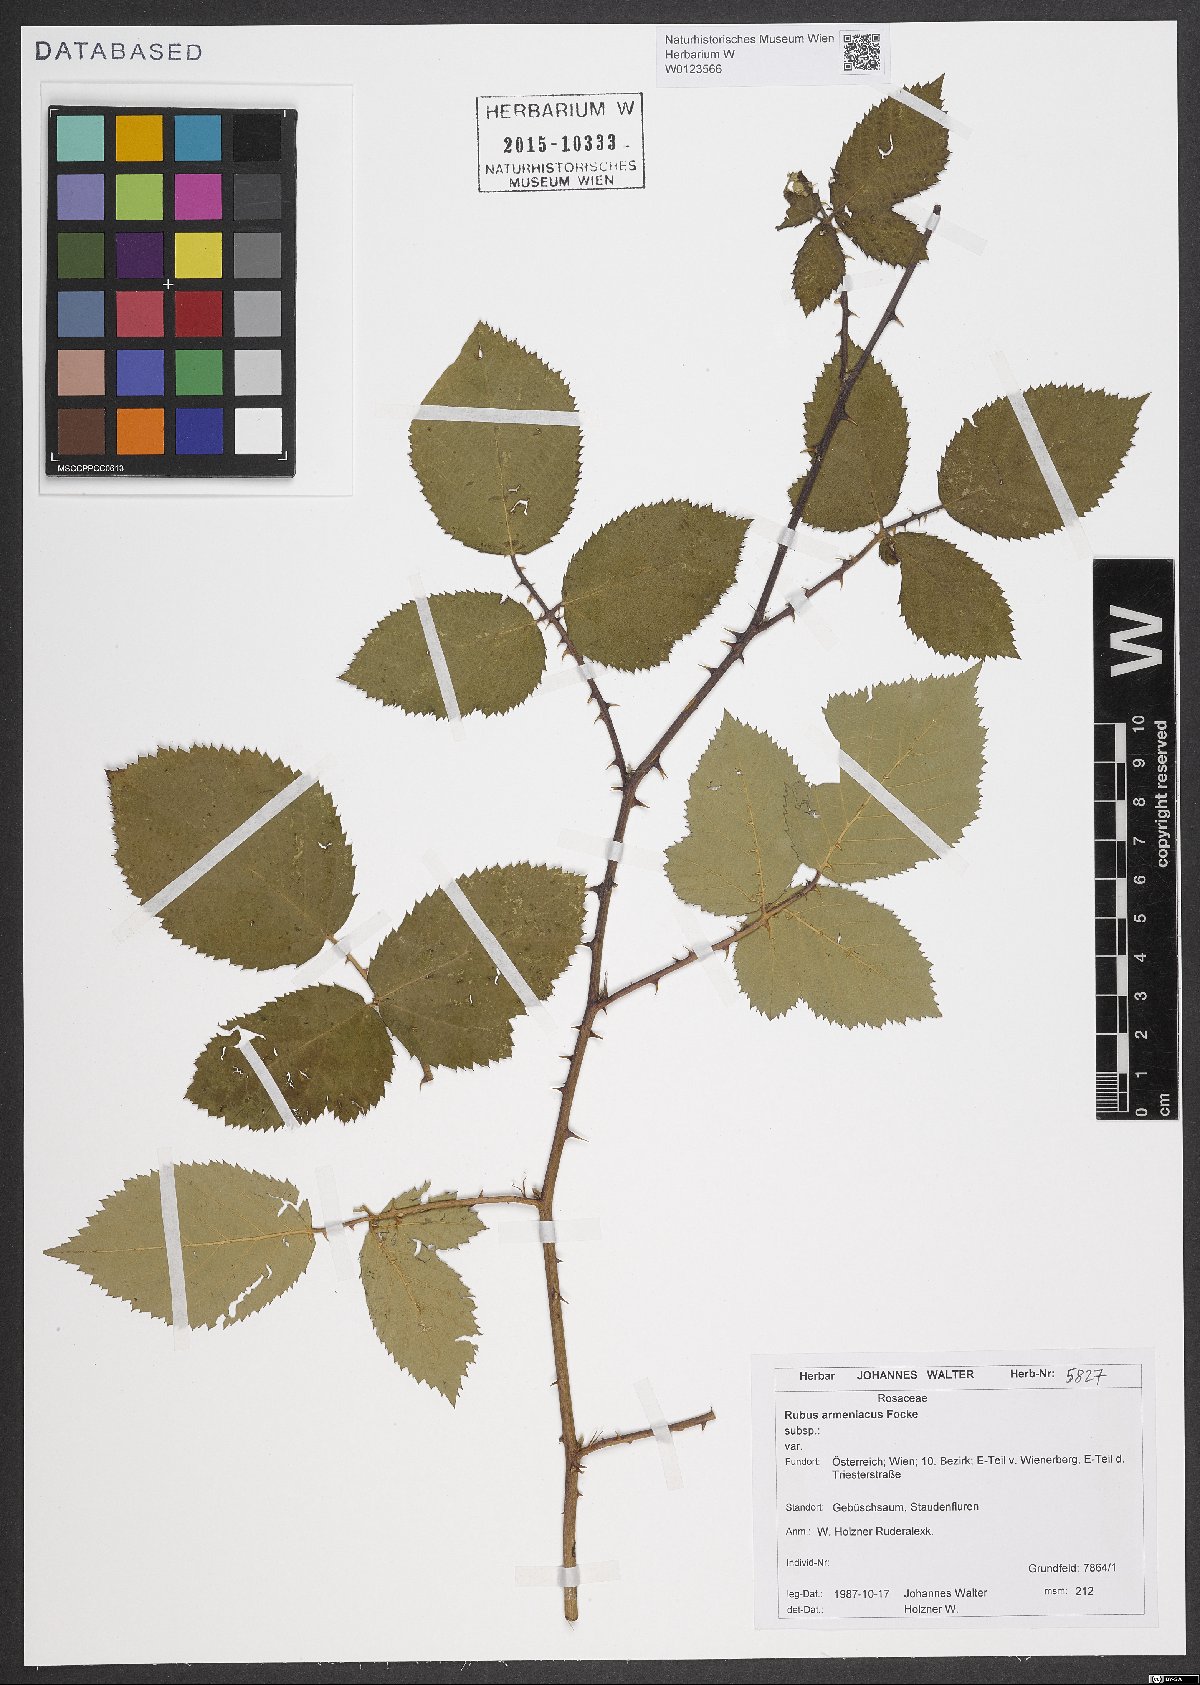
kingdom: Plantae
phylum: Tracheophyta
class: Magnoliopsida
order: Rosales
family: Rosaceae
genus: Rubus
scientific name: Rubus armeniacus
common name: Himalayan blackberry
